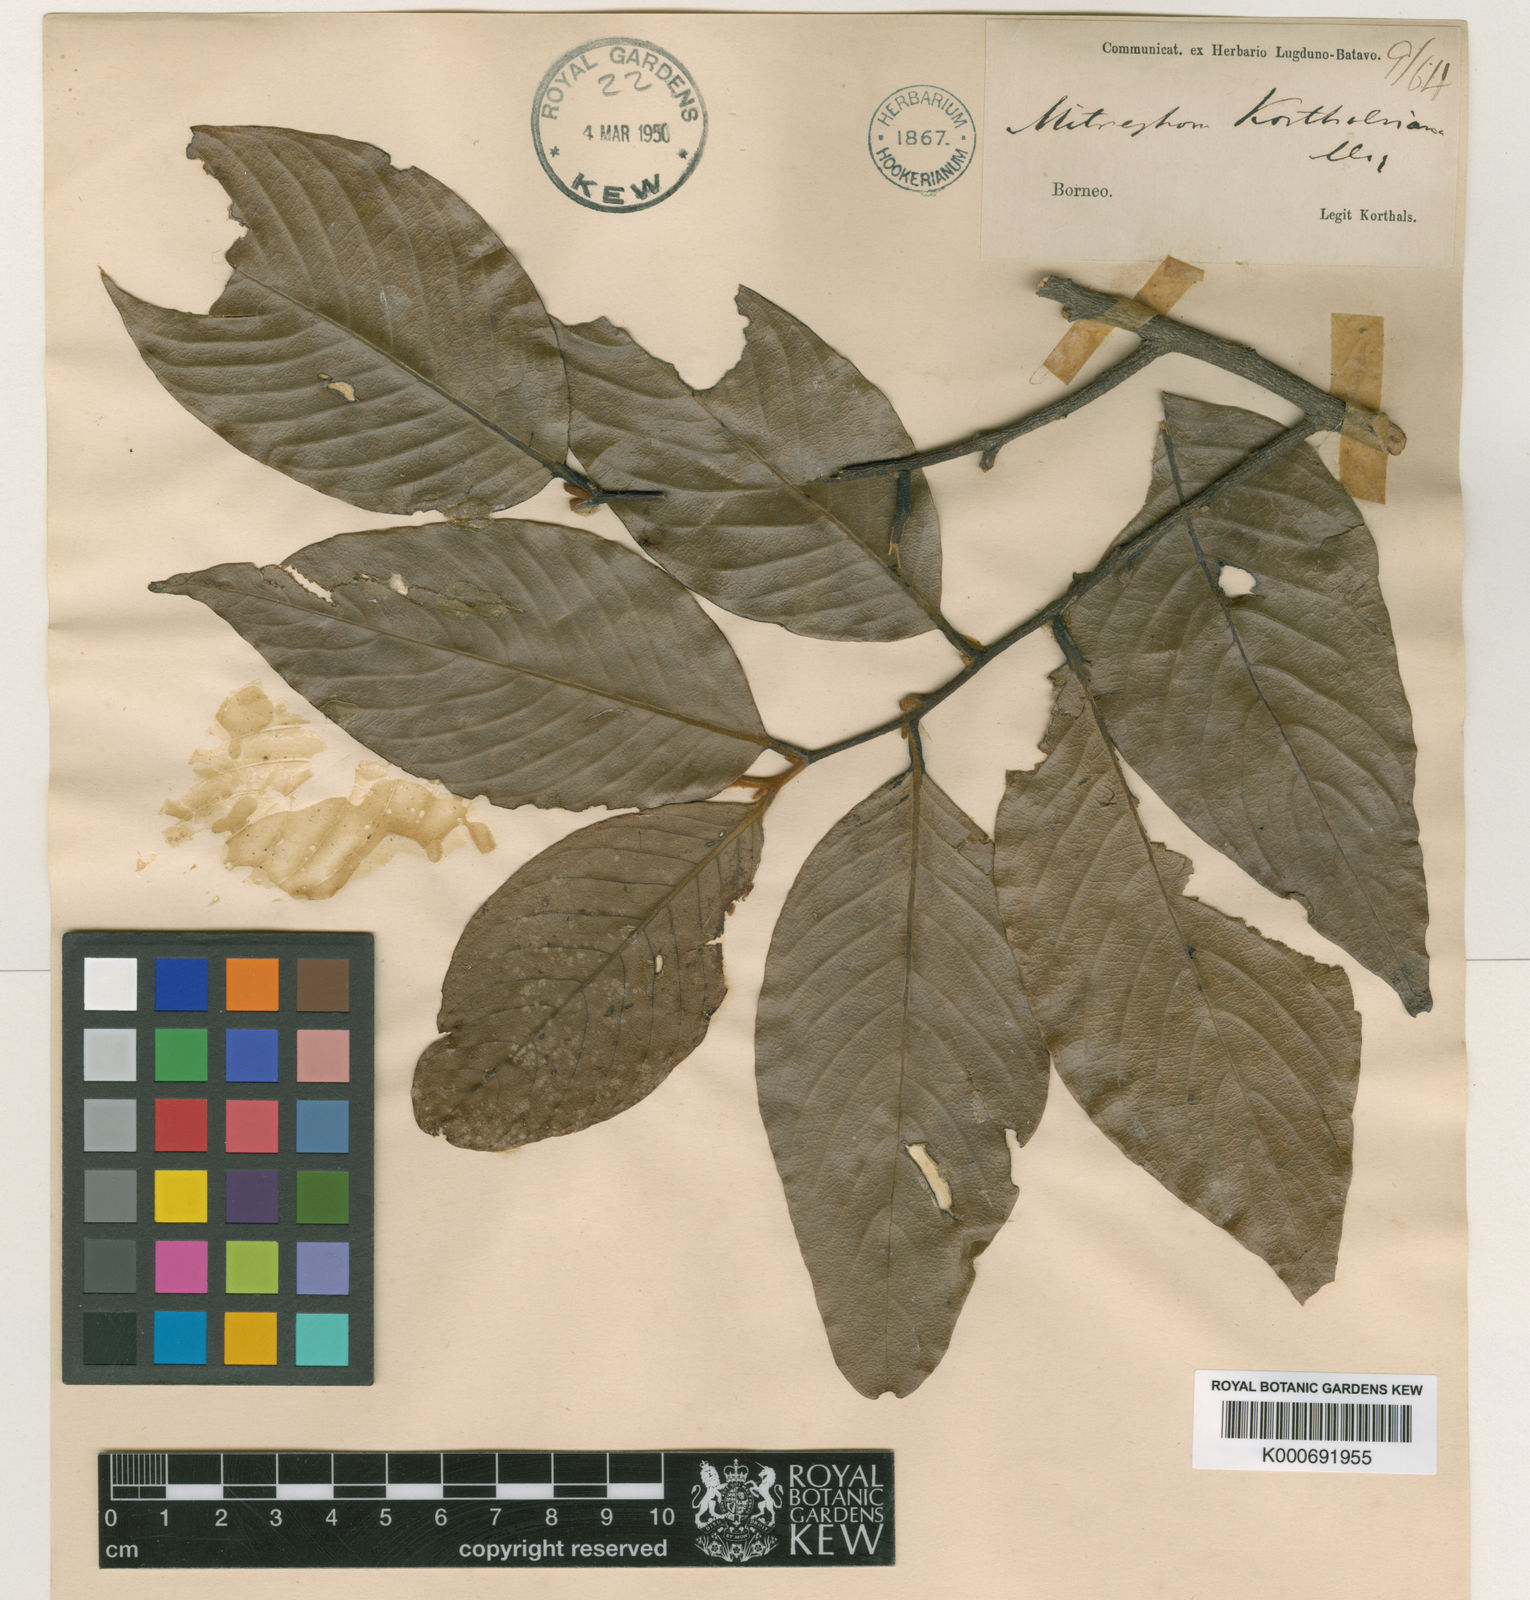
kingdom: Plantae
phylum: Tracheophyta
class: Magnoliopsida
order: Magnoliales
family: Annonaceae
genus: Mitrephora
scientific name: Mitrephora korthalsiana
